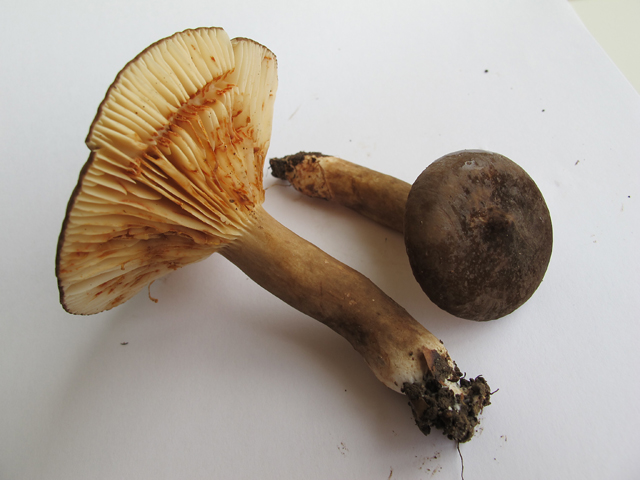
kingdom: Fungi
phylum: Basidiomycota
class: Agaricomycetes
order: Russulales
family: Russulaceae
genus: Lactarius
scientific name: Lactarius romagnesii
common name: fjernbladet mælkehat
